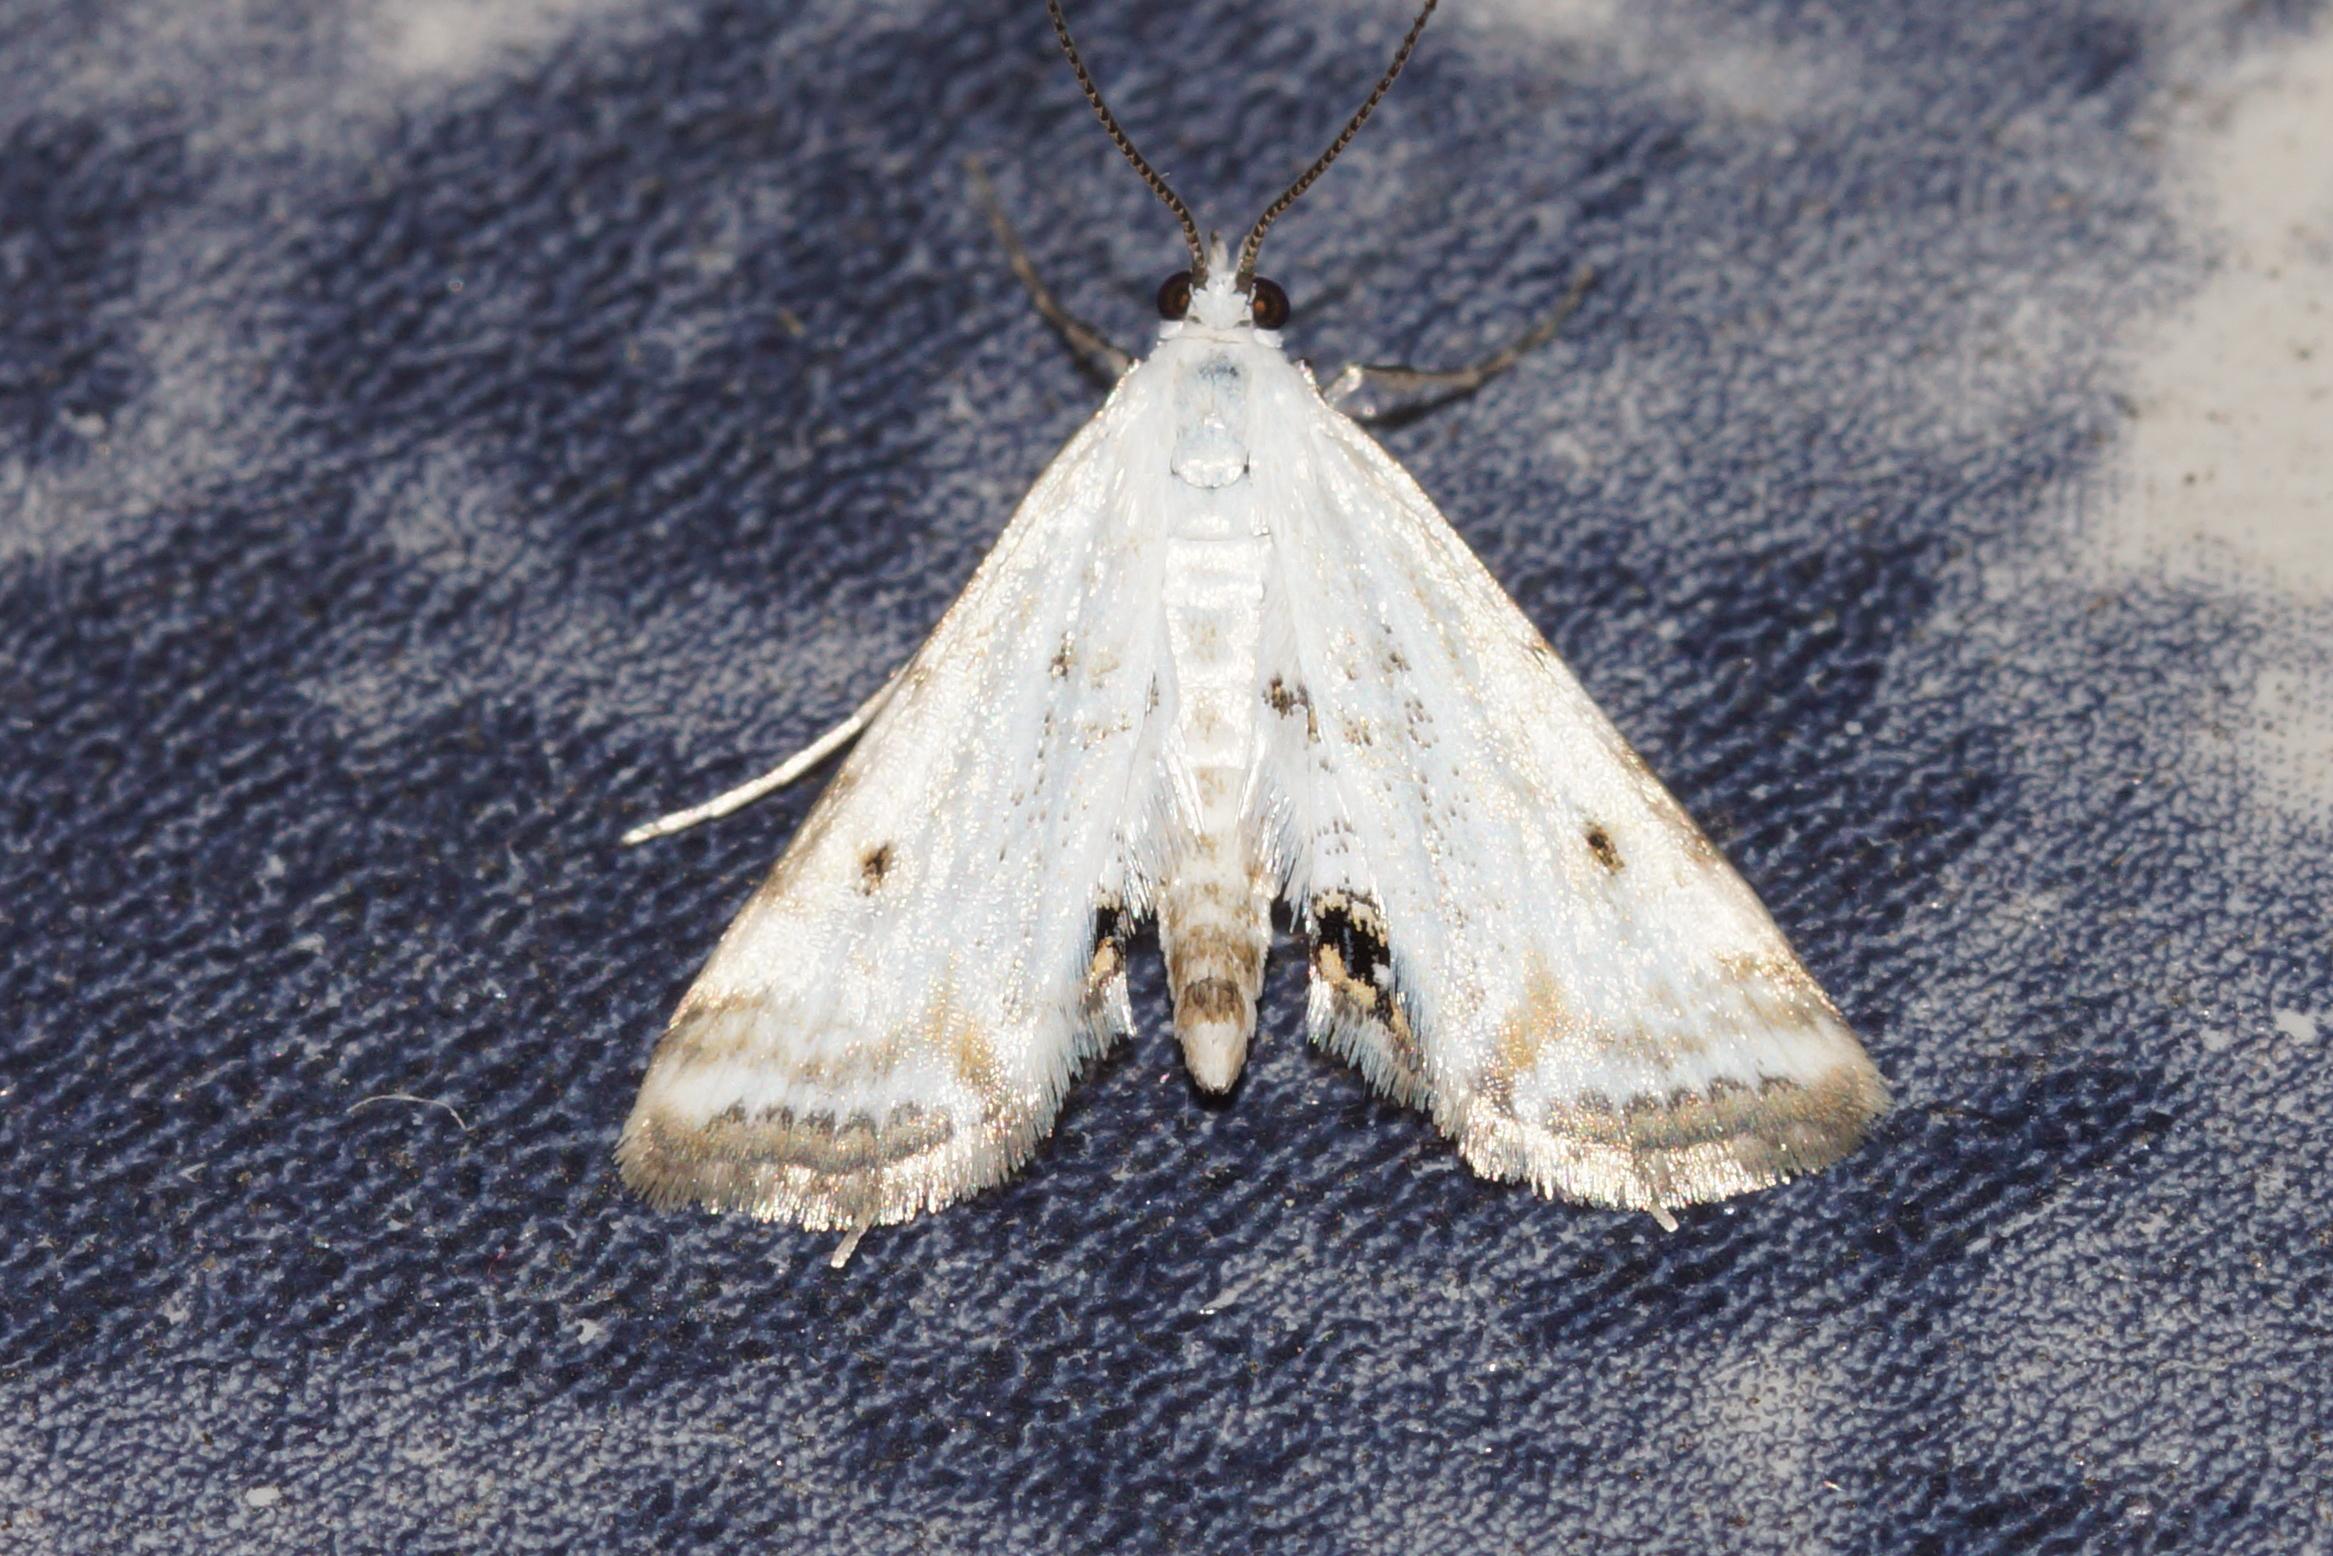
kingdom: Animalia
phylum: Arthropoda
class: Insecta
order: Lepidoptera
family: Crambidae
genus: Cataclysta
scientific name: Cataclysta lemnata
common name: Andemadhalvmøl
